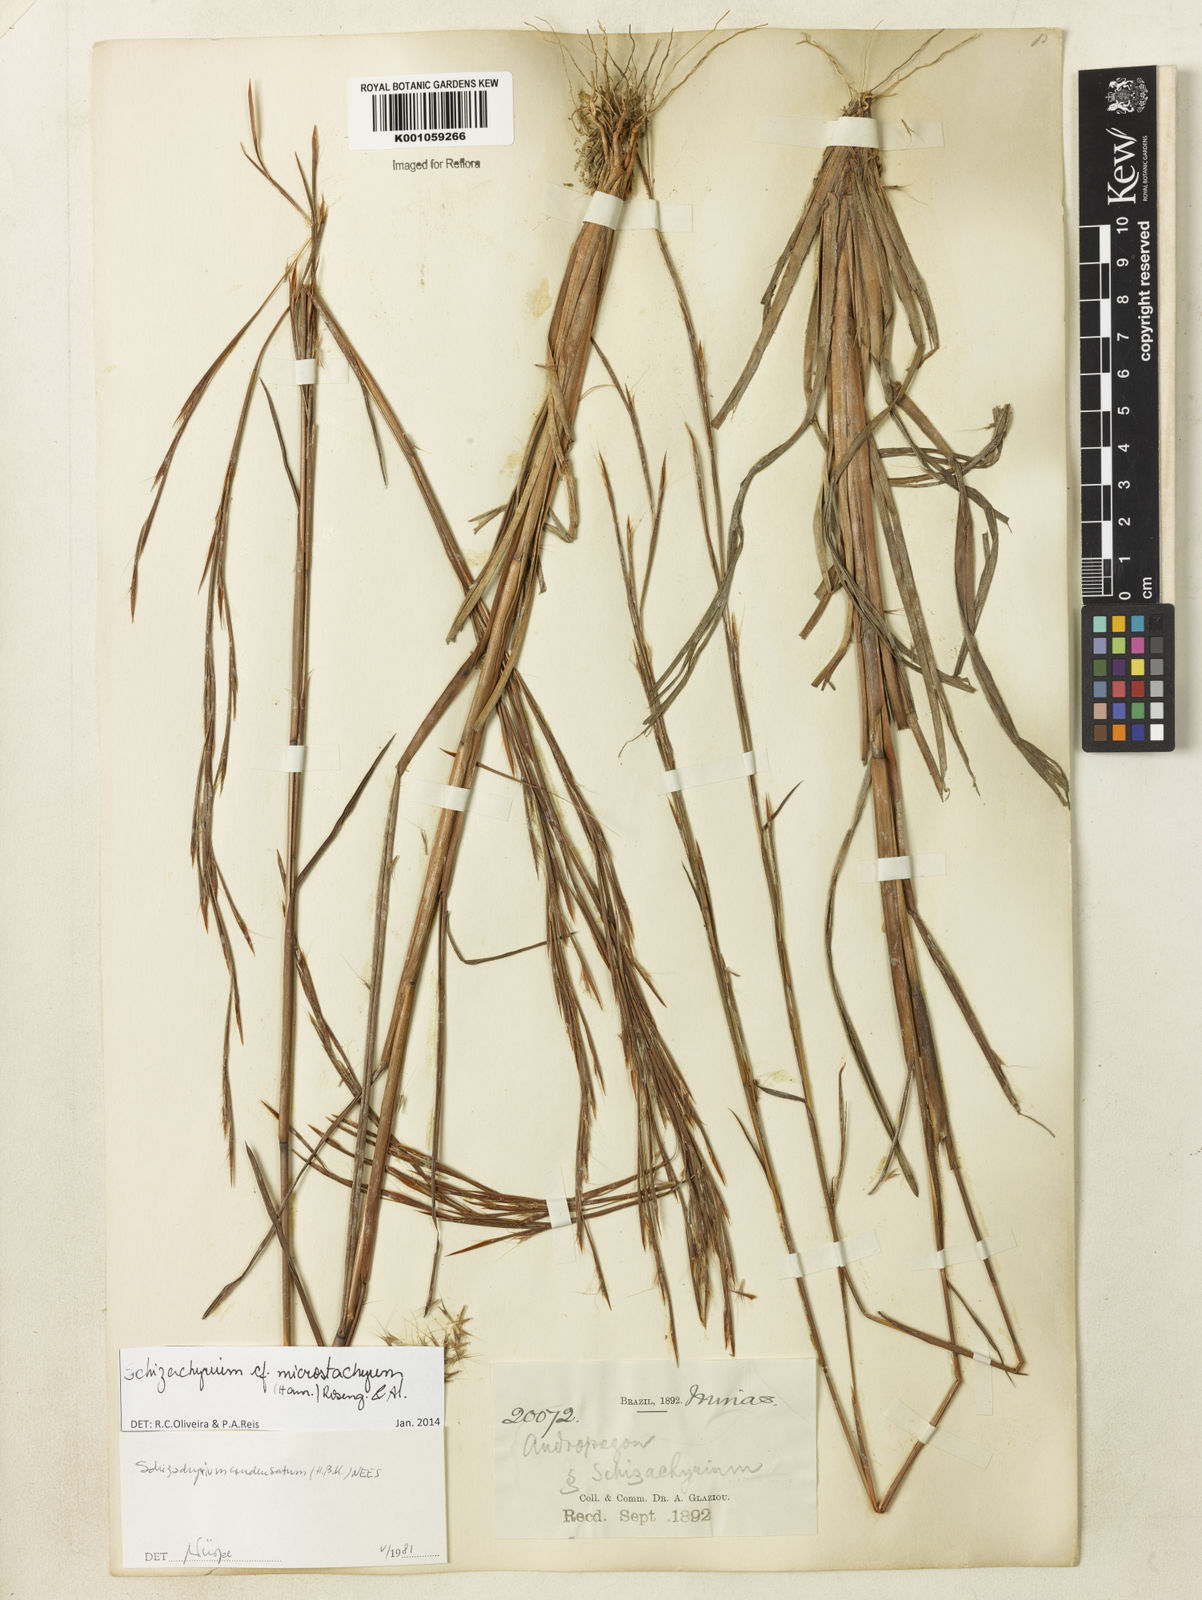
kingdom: Plantae
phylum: Tracheophyta
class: Liliopsida
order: Poales
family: Poaceae
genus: Schizachyrium
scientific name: Schizachyrium
